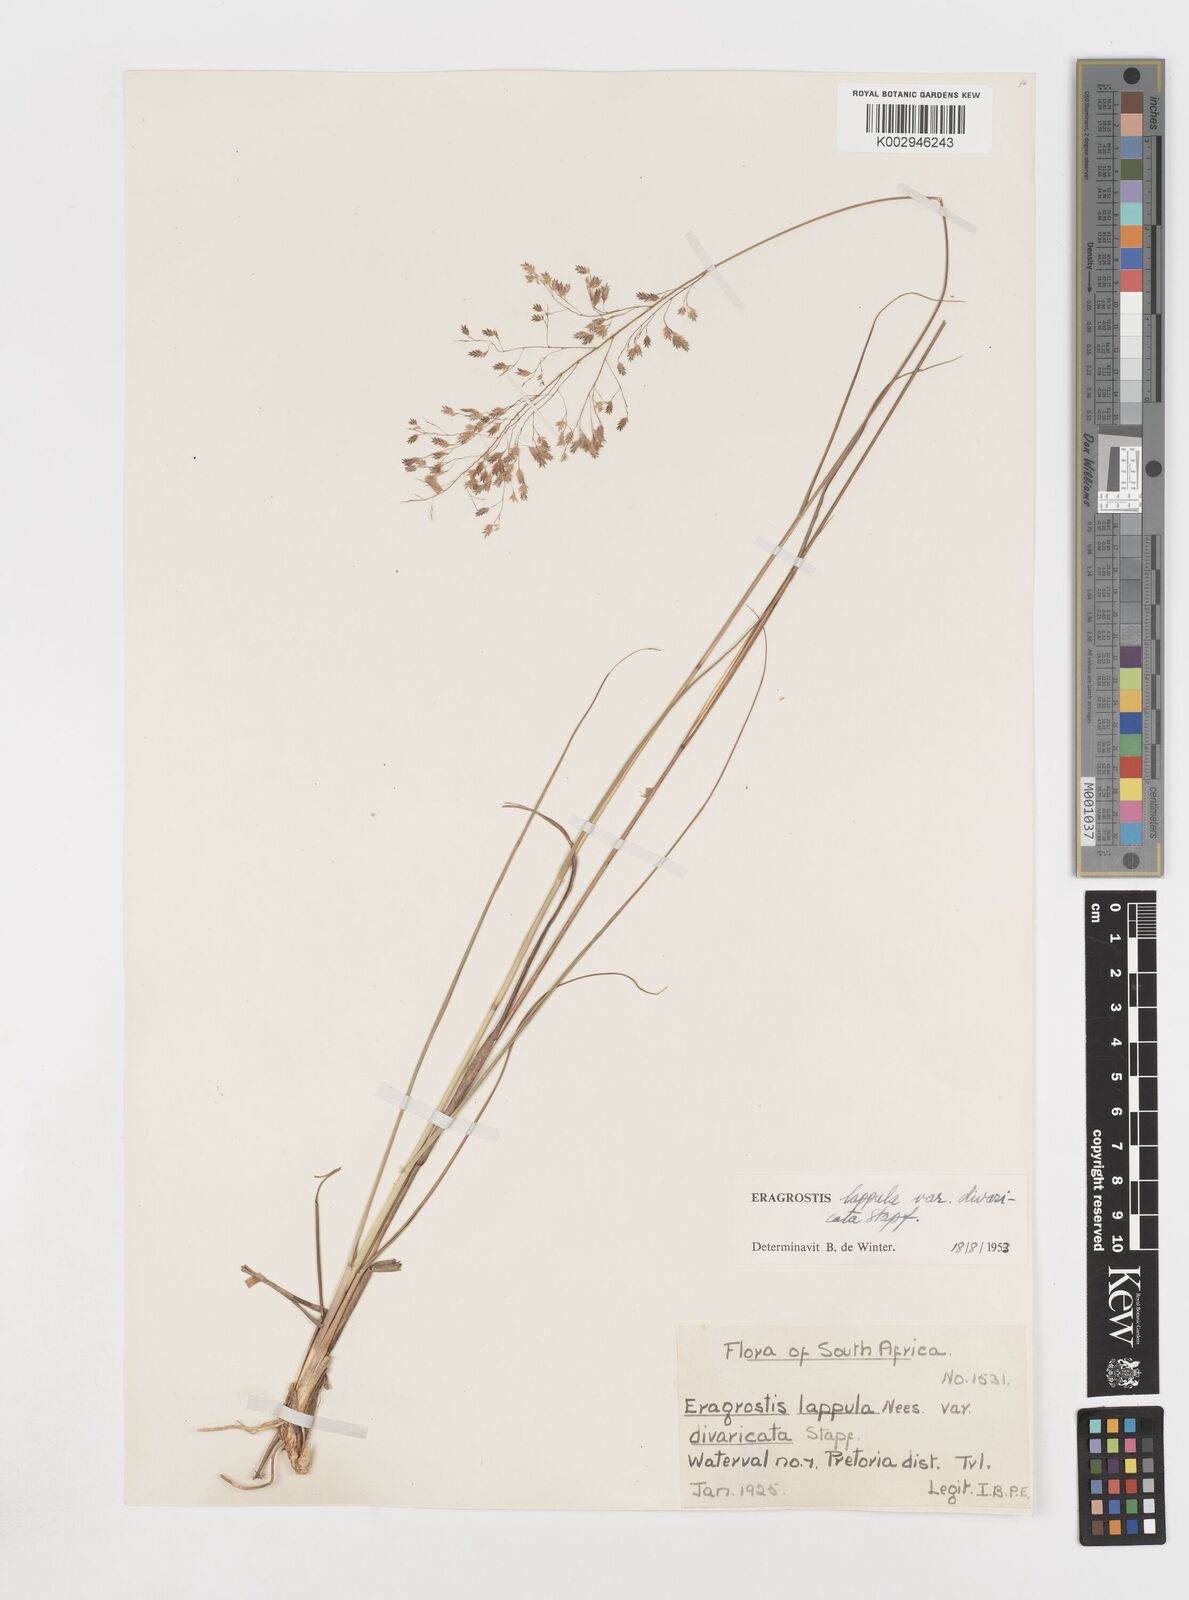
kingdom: Plantae
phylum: Tracheophyta
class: Liliopsida
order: Poales
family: Poaceae
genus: Eragrostis
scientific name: Eragrostis lappula
